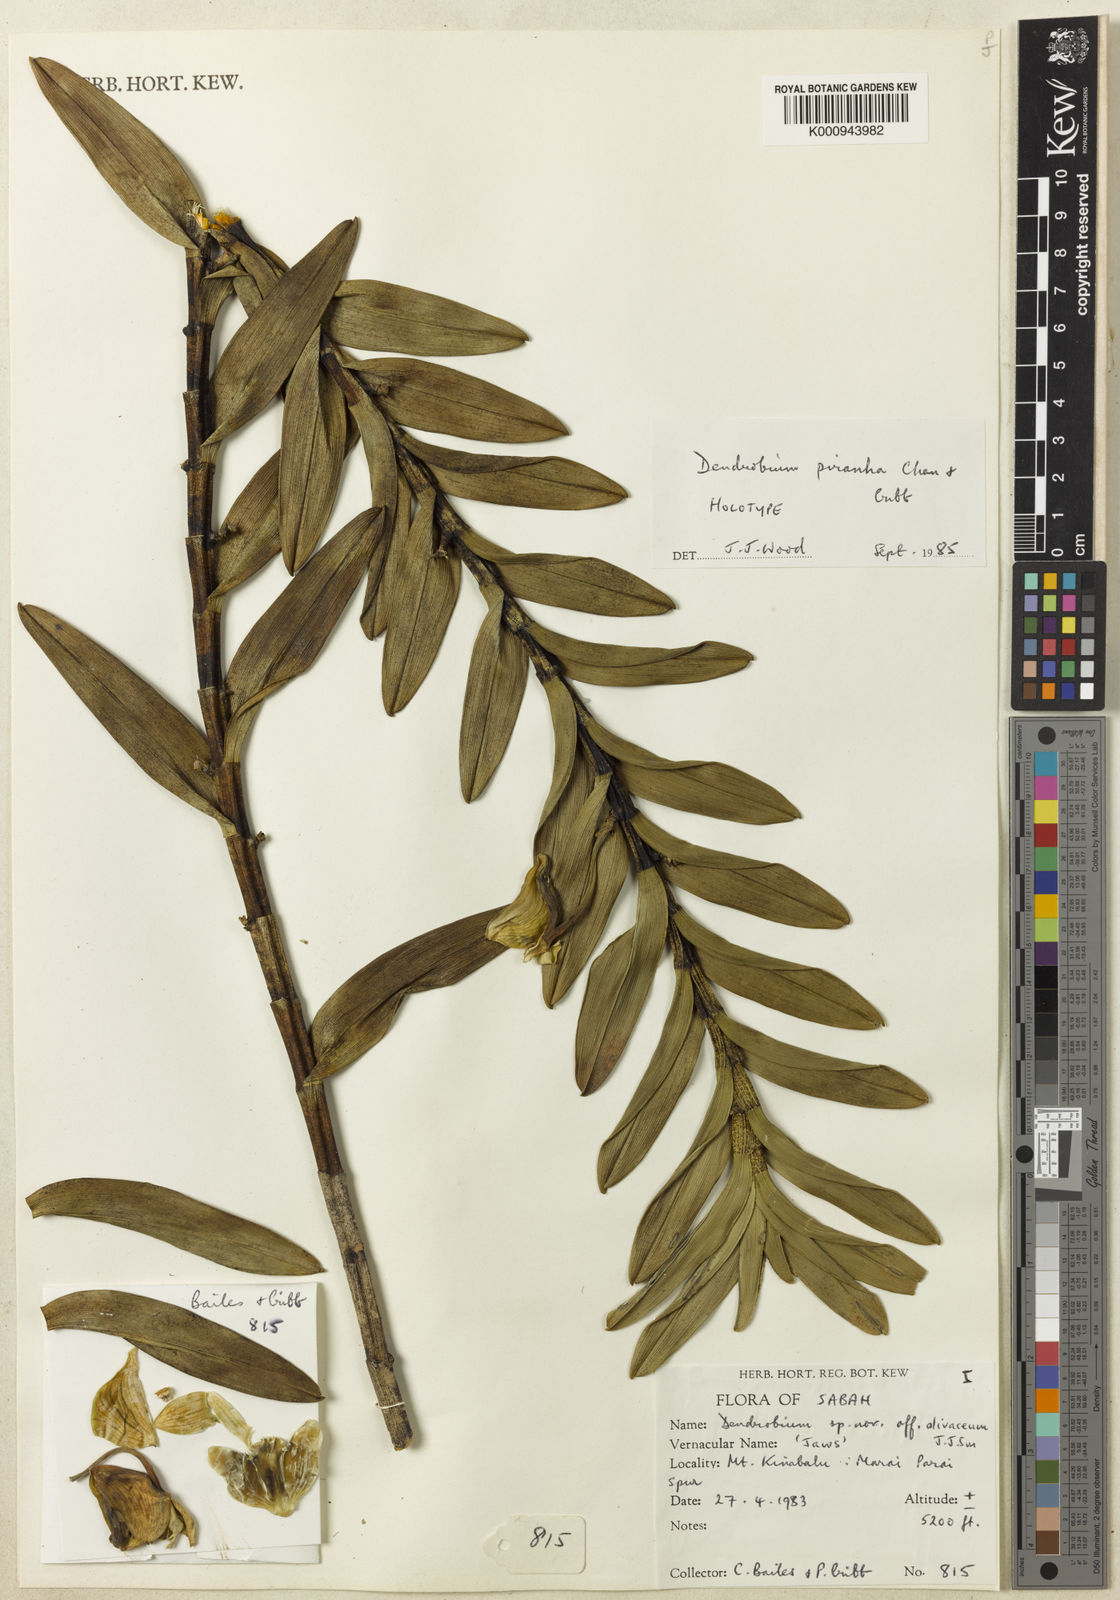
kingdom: Plantae
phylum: Tracheophyta
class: Liliopsida
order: Asparagales
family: Orchidaceae
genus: Dendrobium
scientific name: Dendrobium piranha
